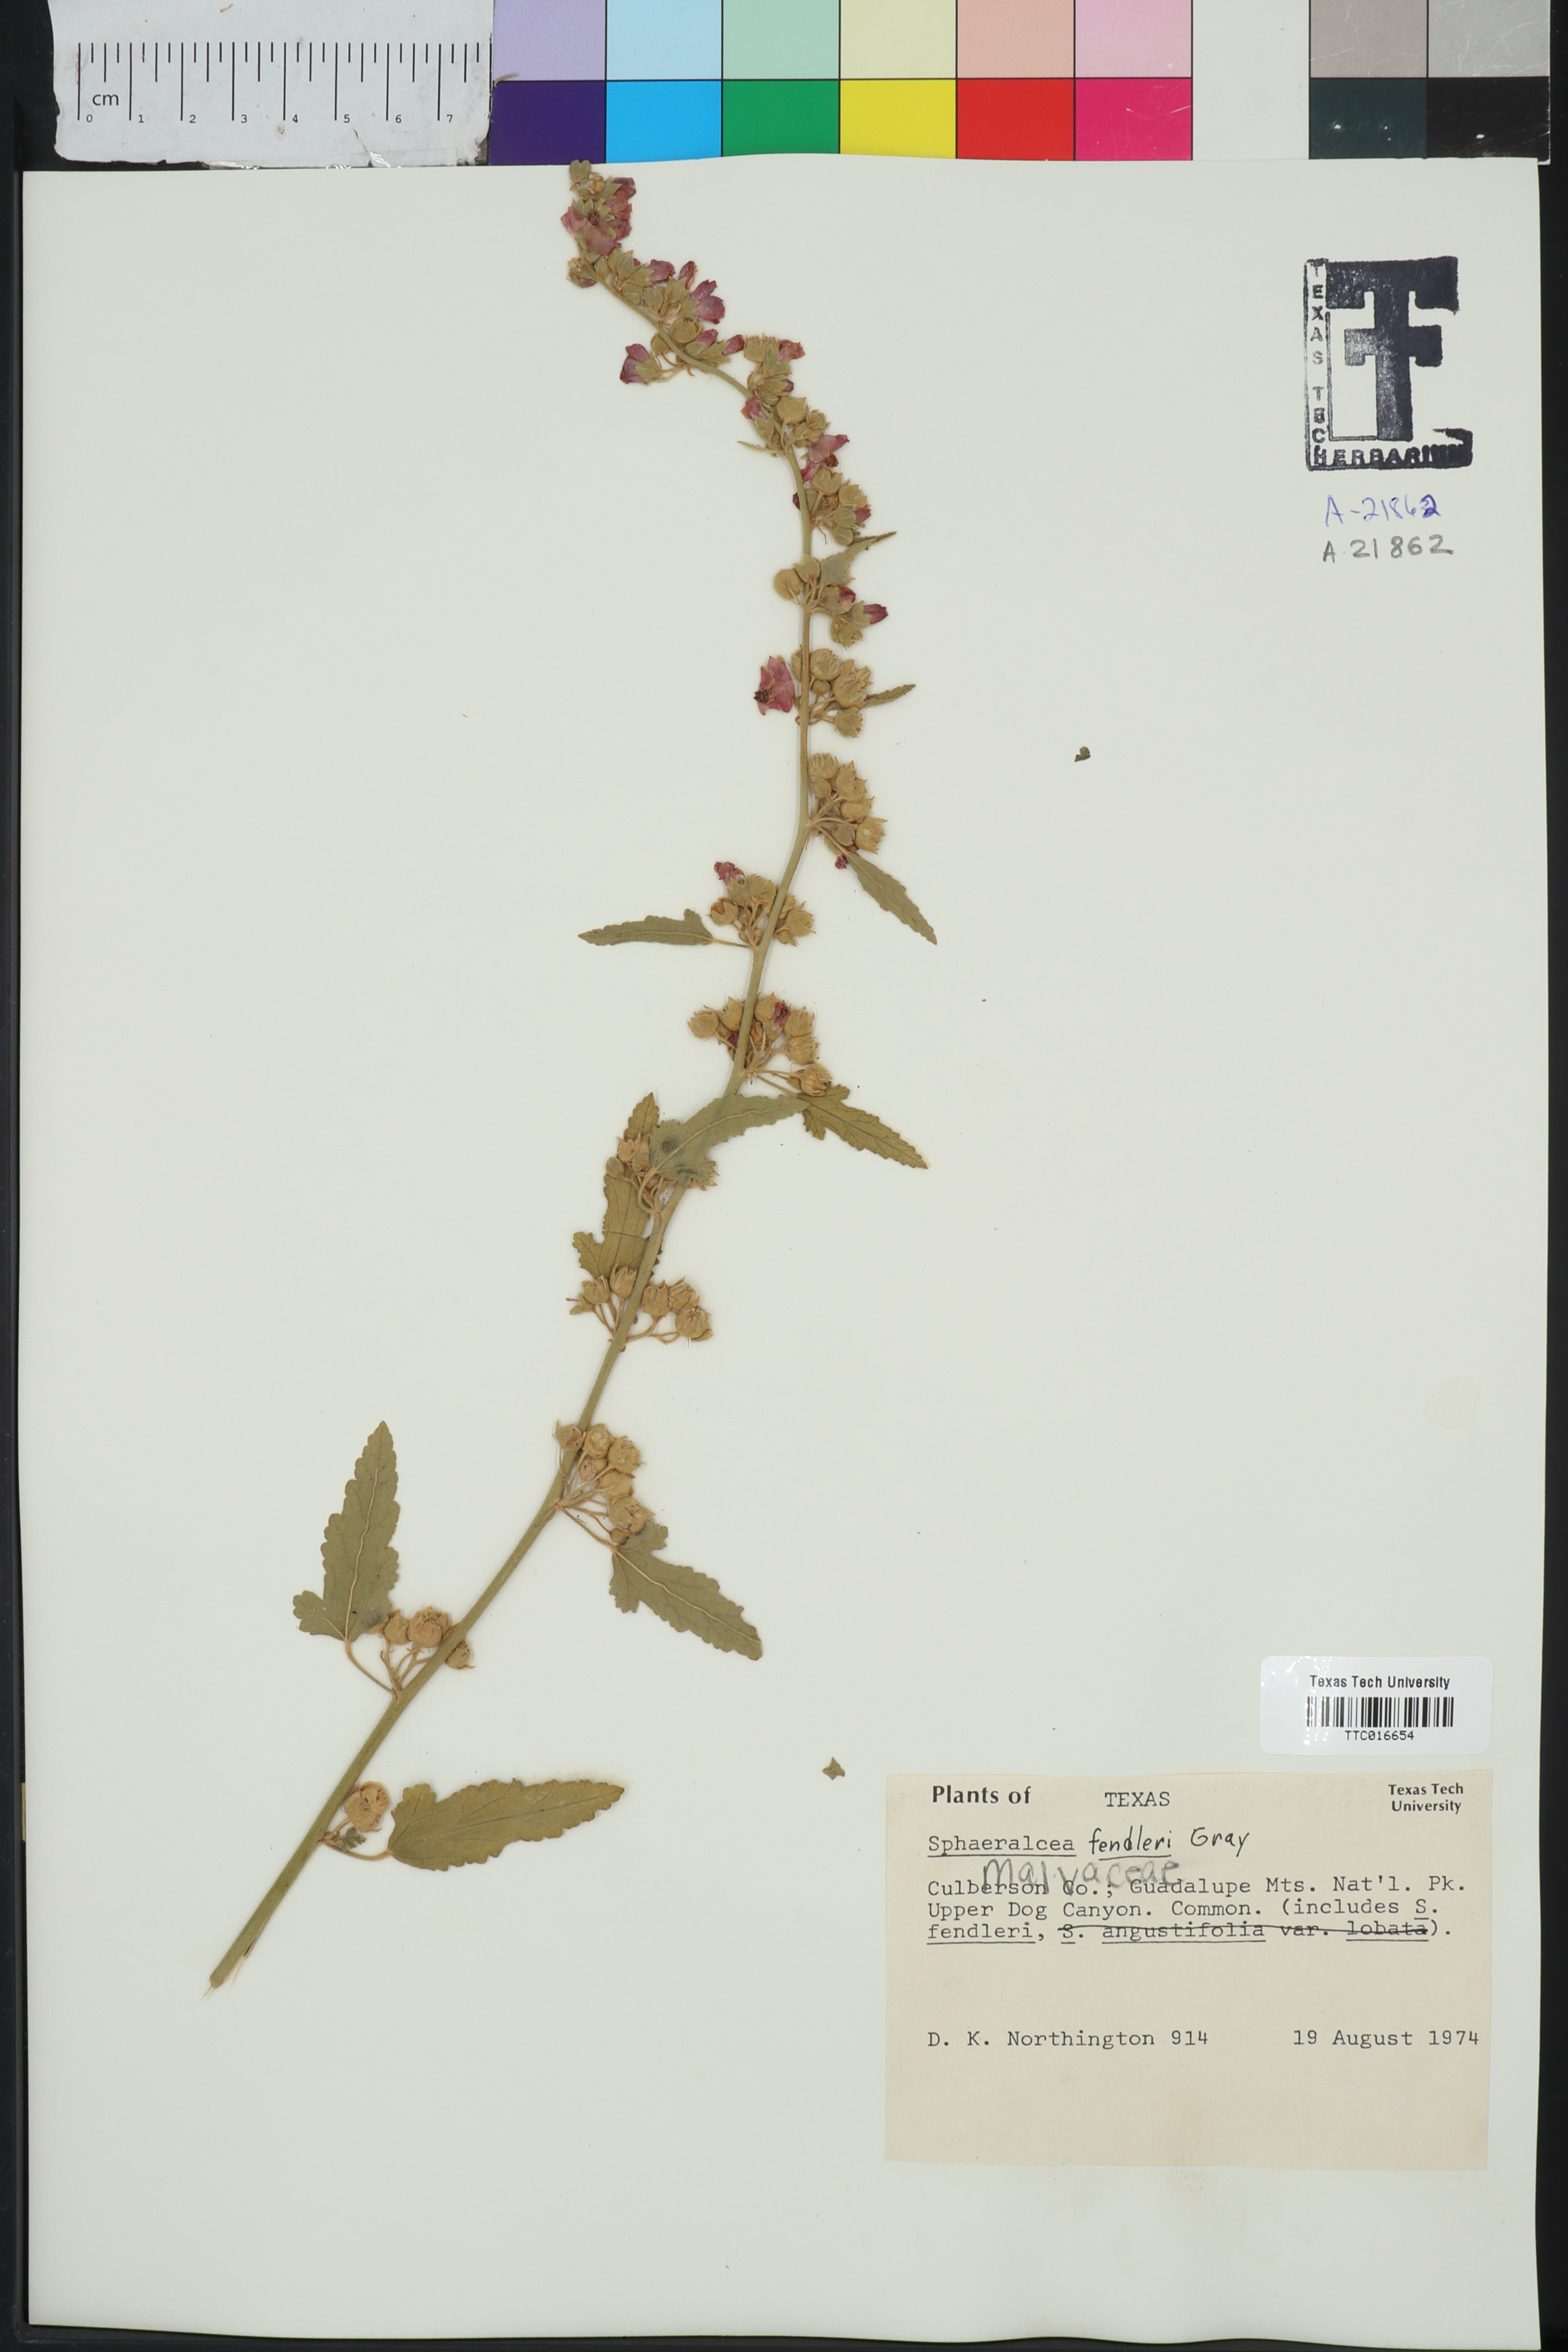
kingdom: Plantae
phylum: Tracheophyta
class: Magnoliopsida
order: Malvales
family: Malvaceae
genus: Sphaeralcea
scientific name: Sphaeralcea fendleri
